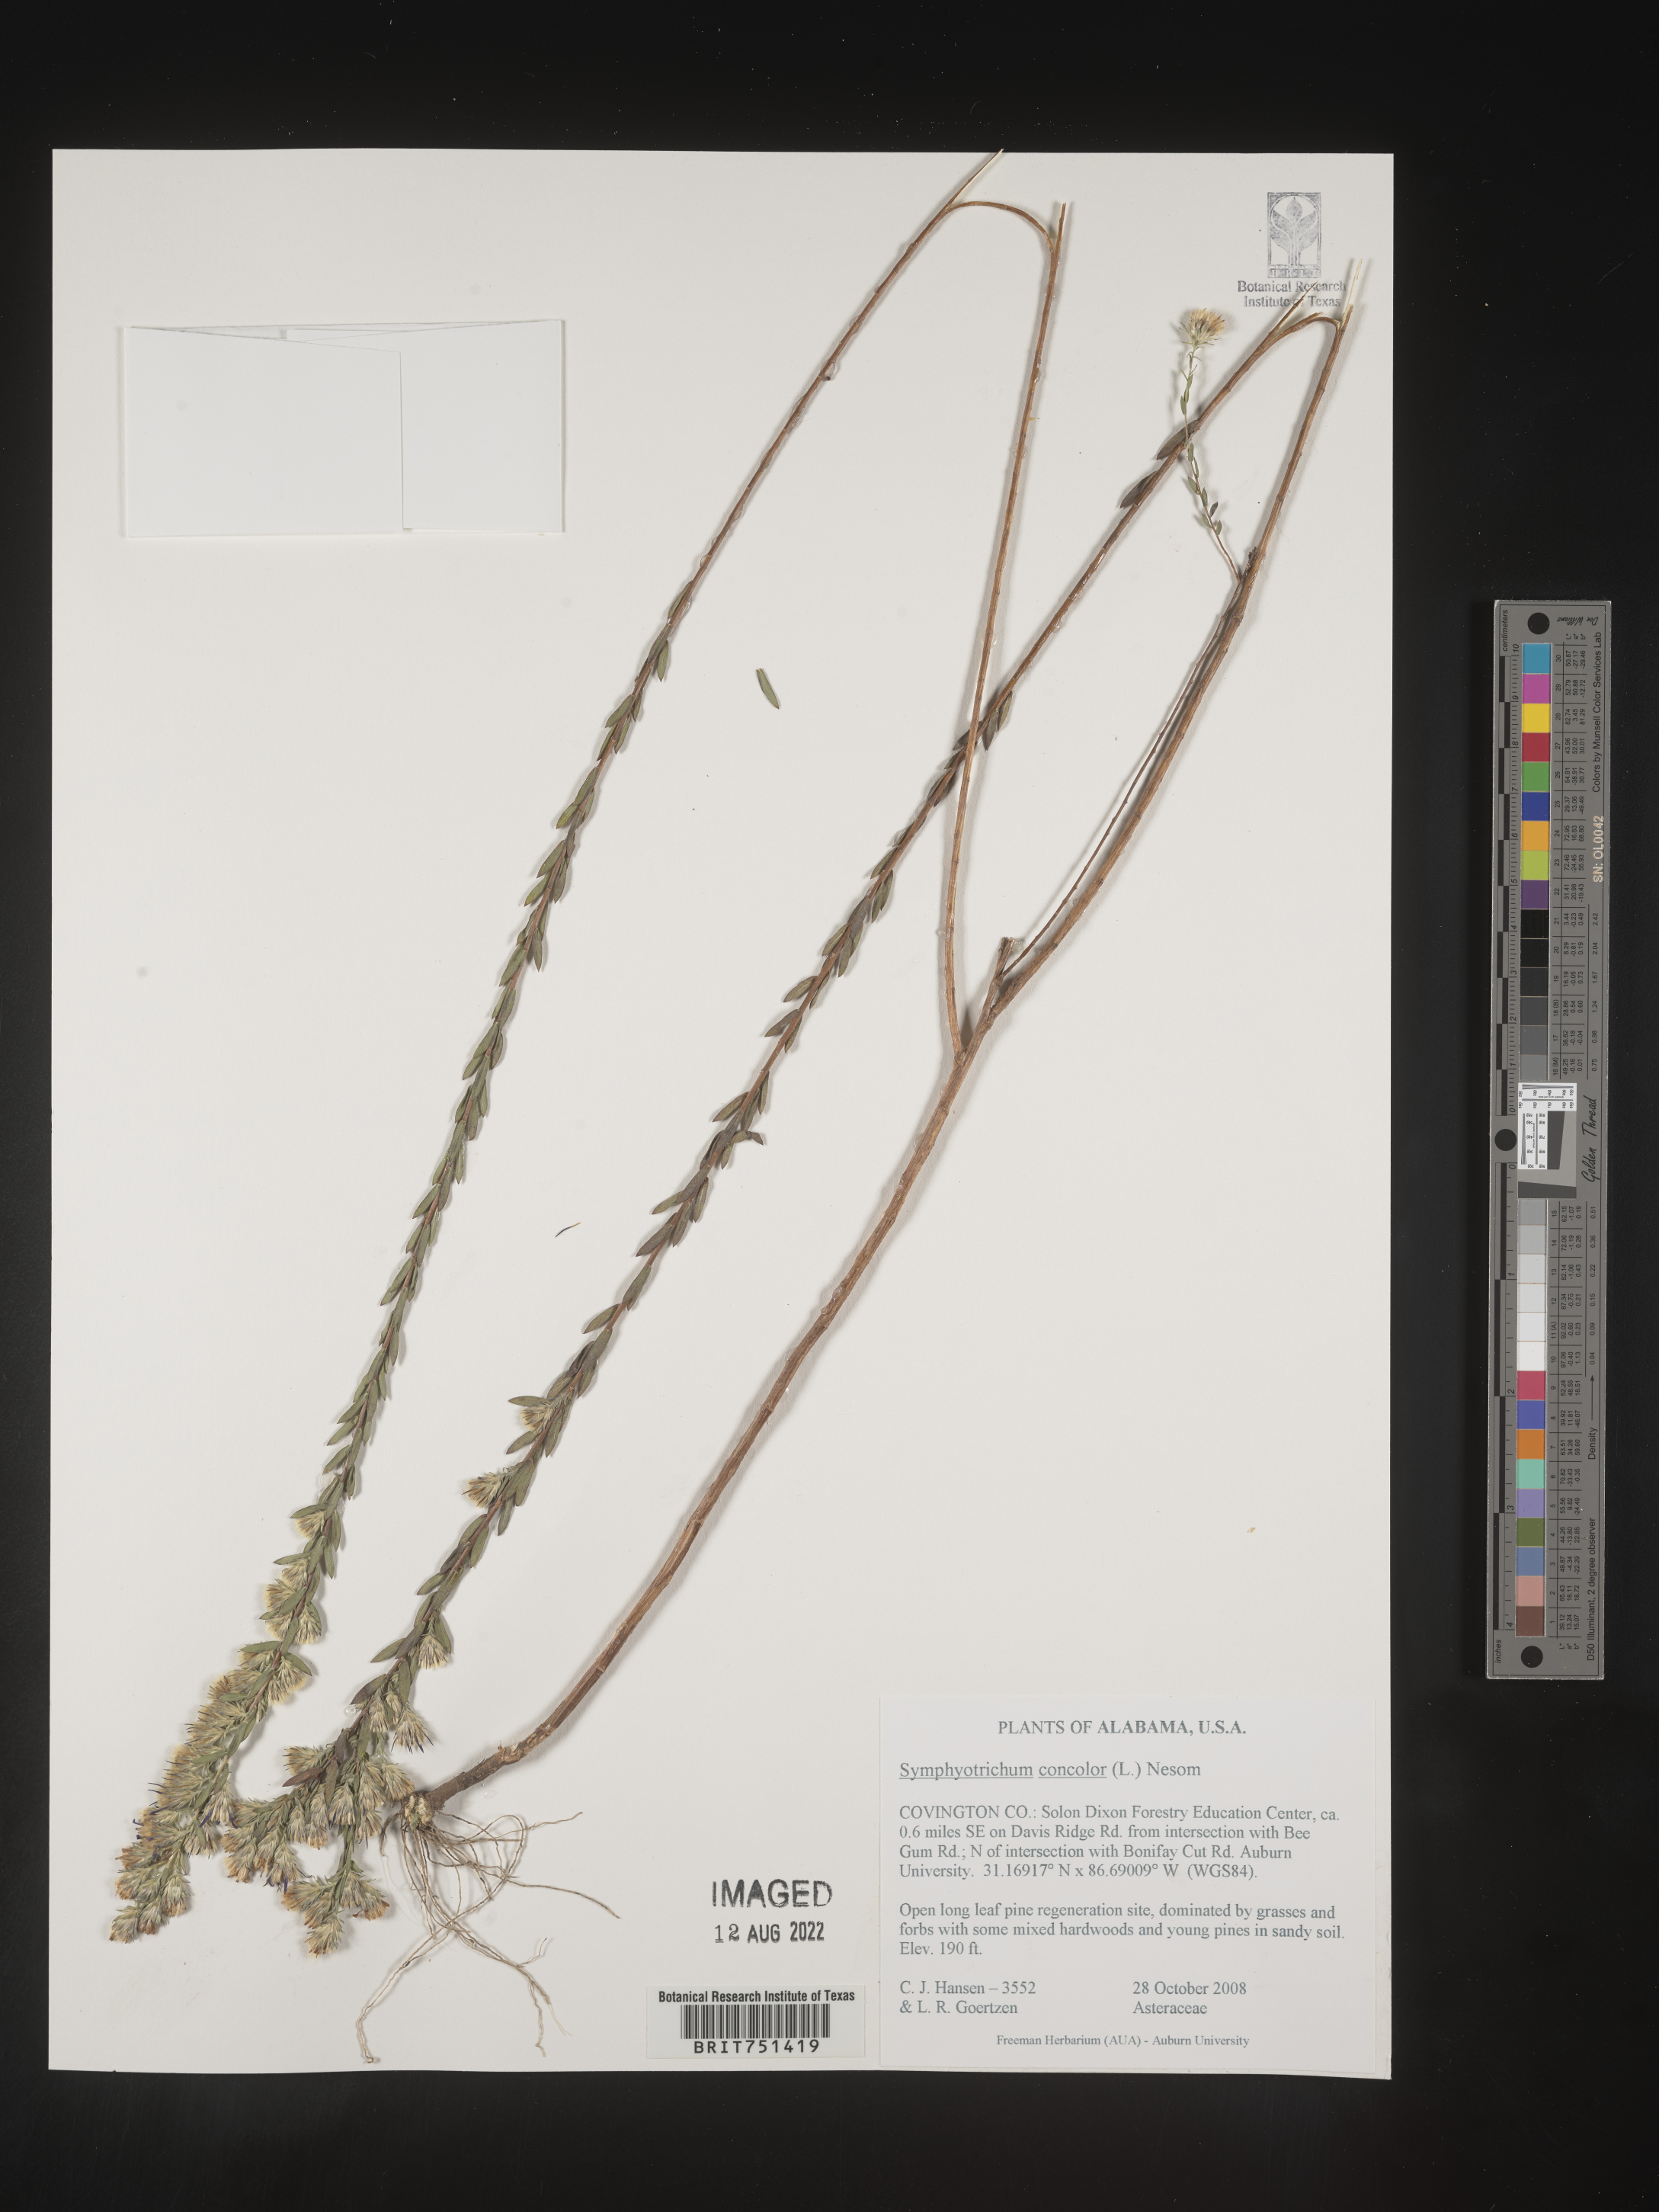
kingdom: Plantae
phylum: Tracheophyta
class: Magnoliopsida
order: Asterales
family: Asteraceae
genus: Symphyotrichum
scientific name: Symphyotrichum concolor
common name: Eastern silver aster
